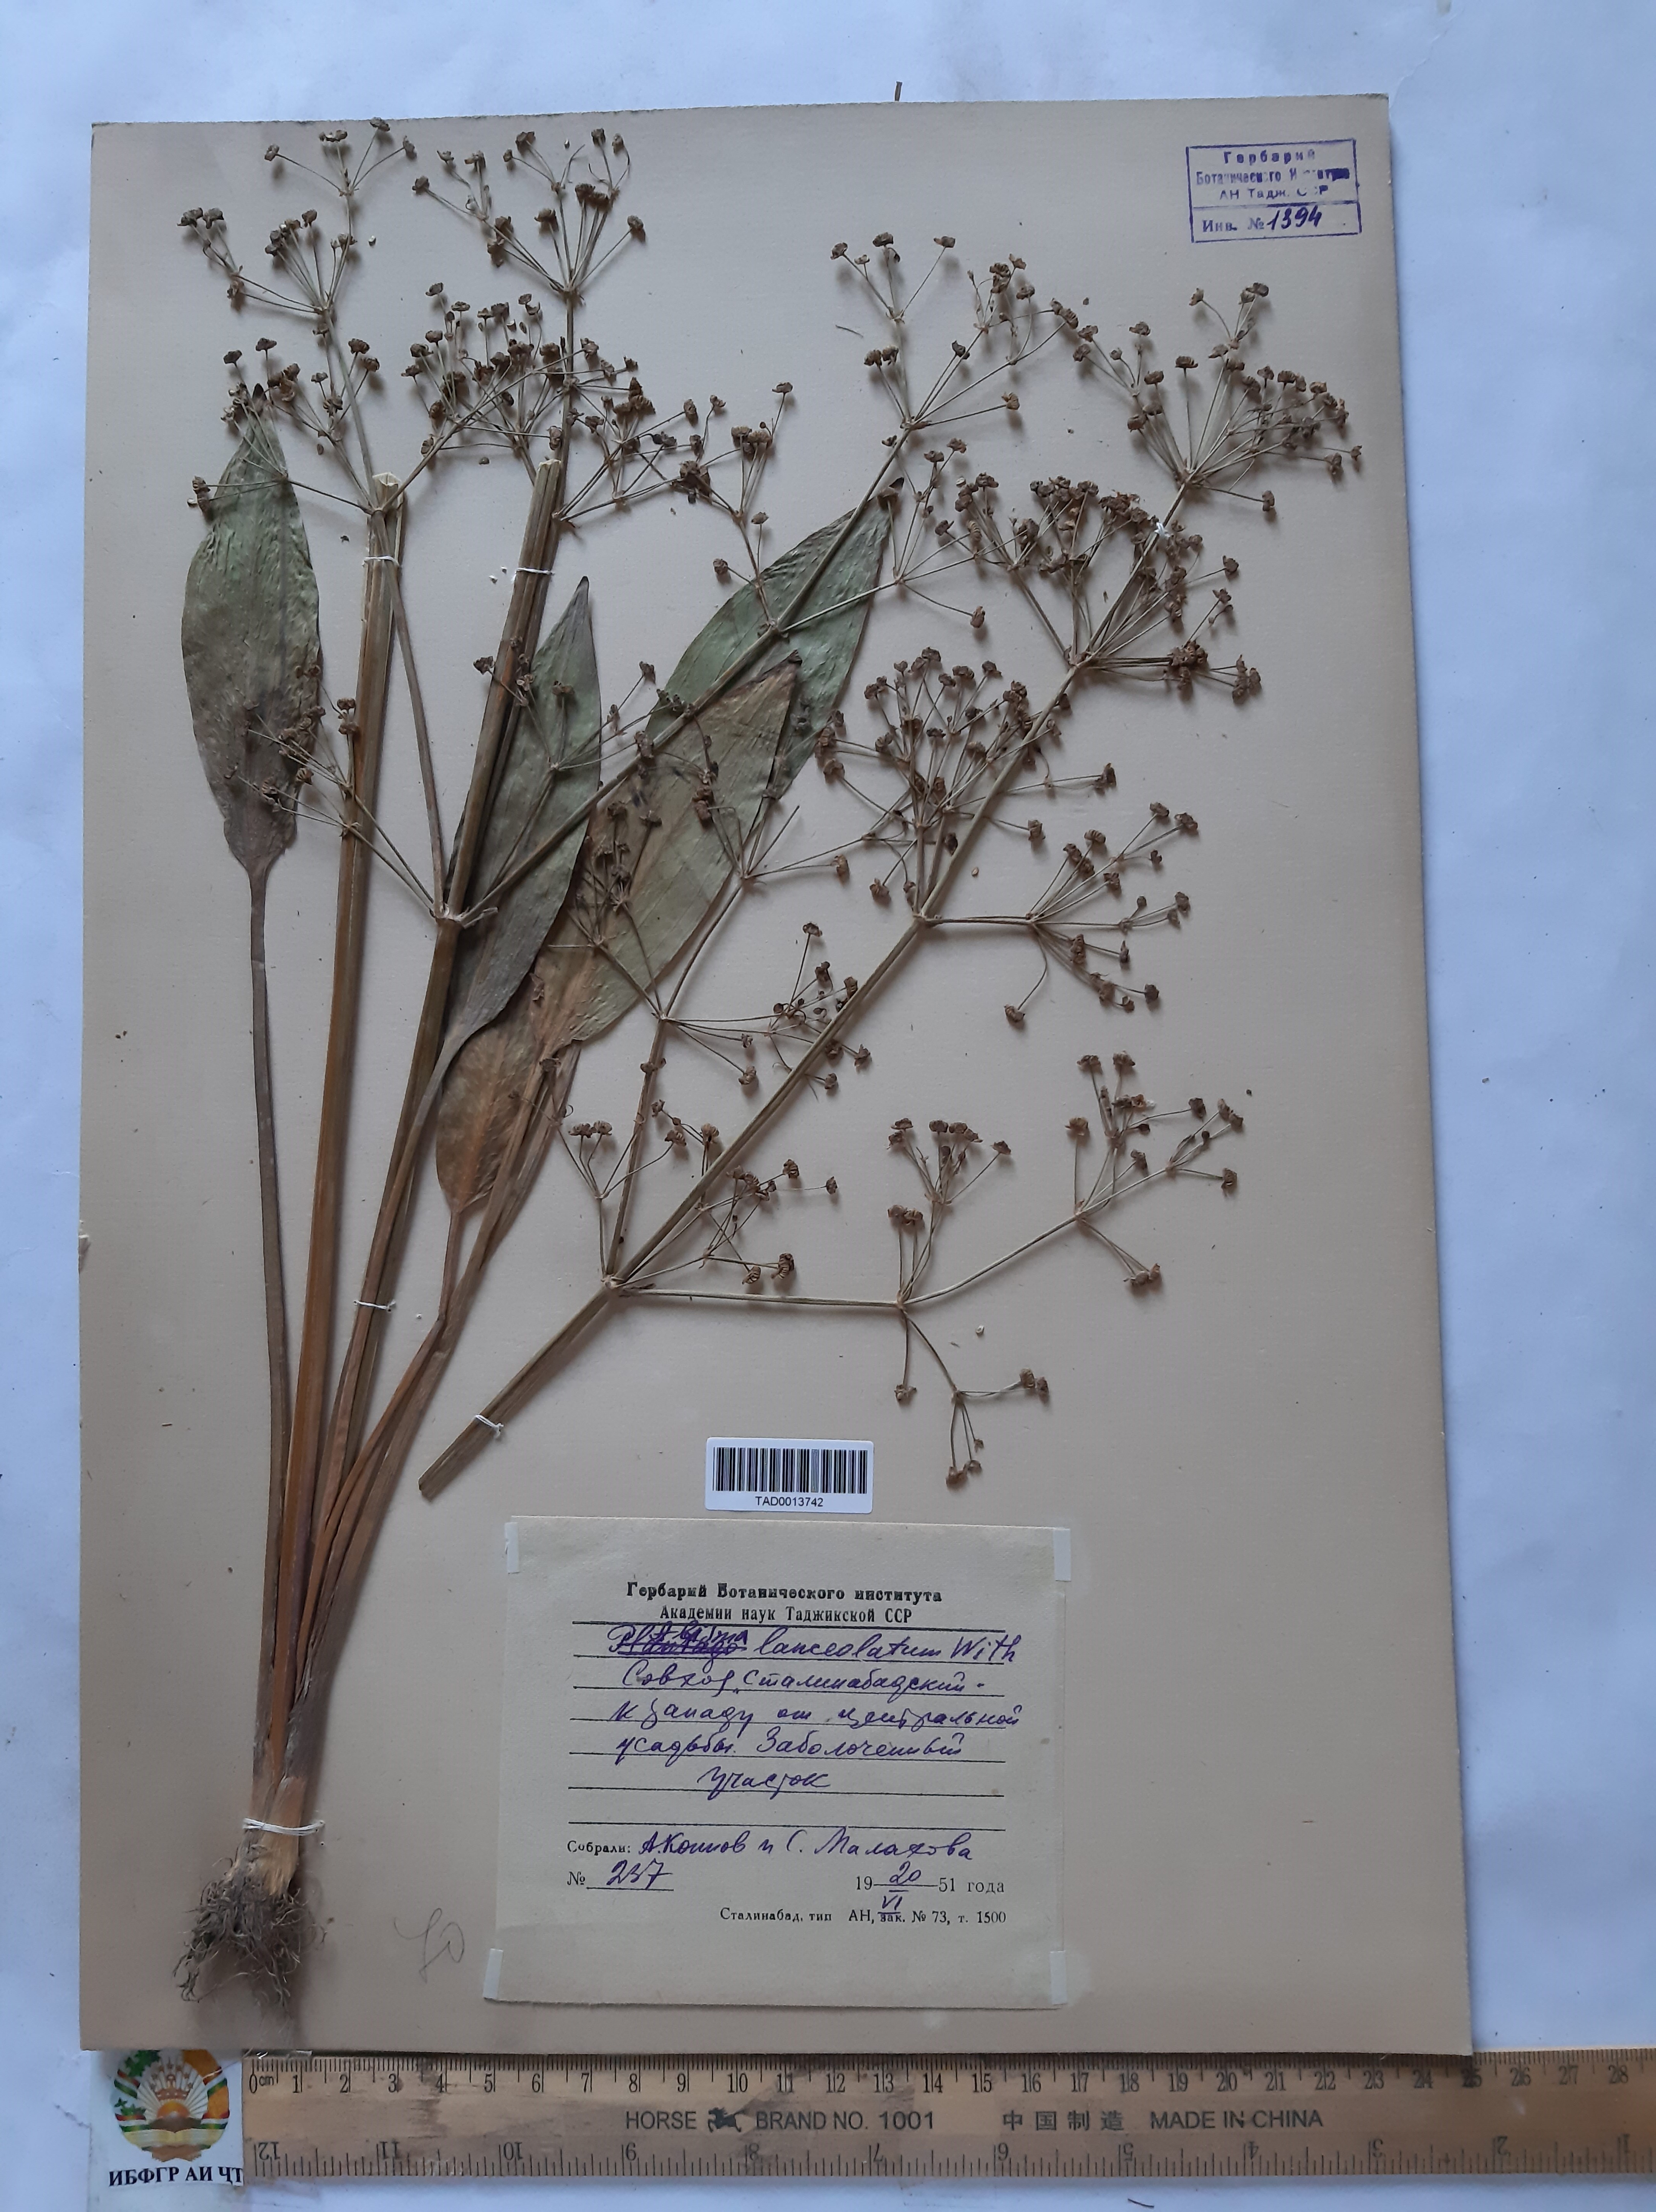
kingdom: Plantae
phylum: Tracheophyta
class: Liliopsida
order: Alismatales
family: Alismataceae
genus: Alisma
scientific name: Alisma lanceolatum
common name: Narrow-leaved water-plantain
